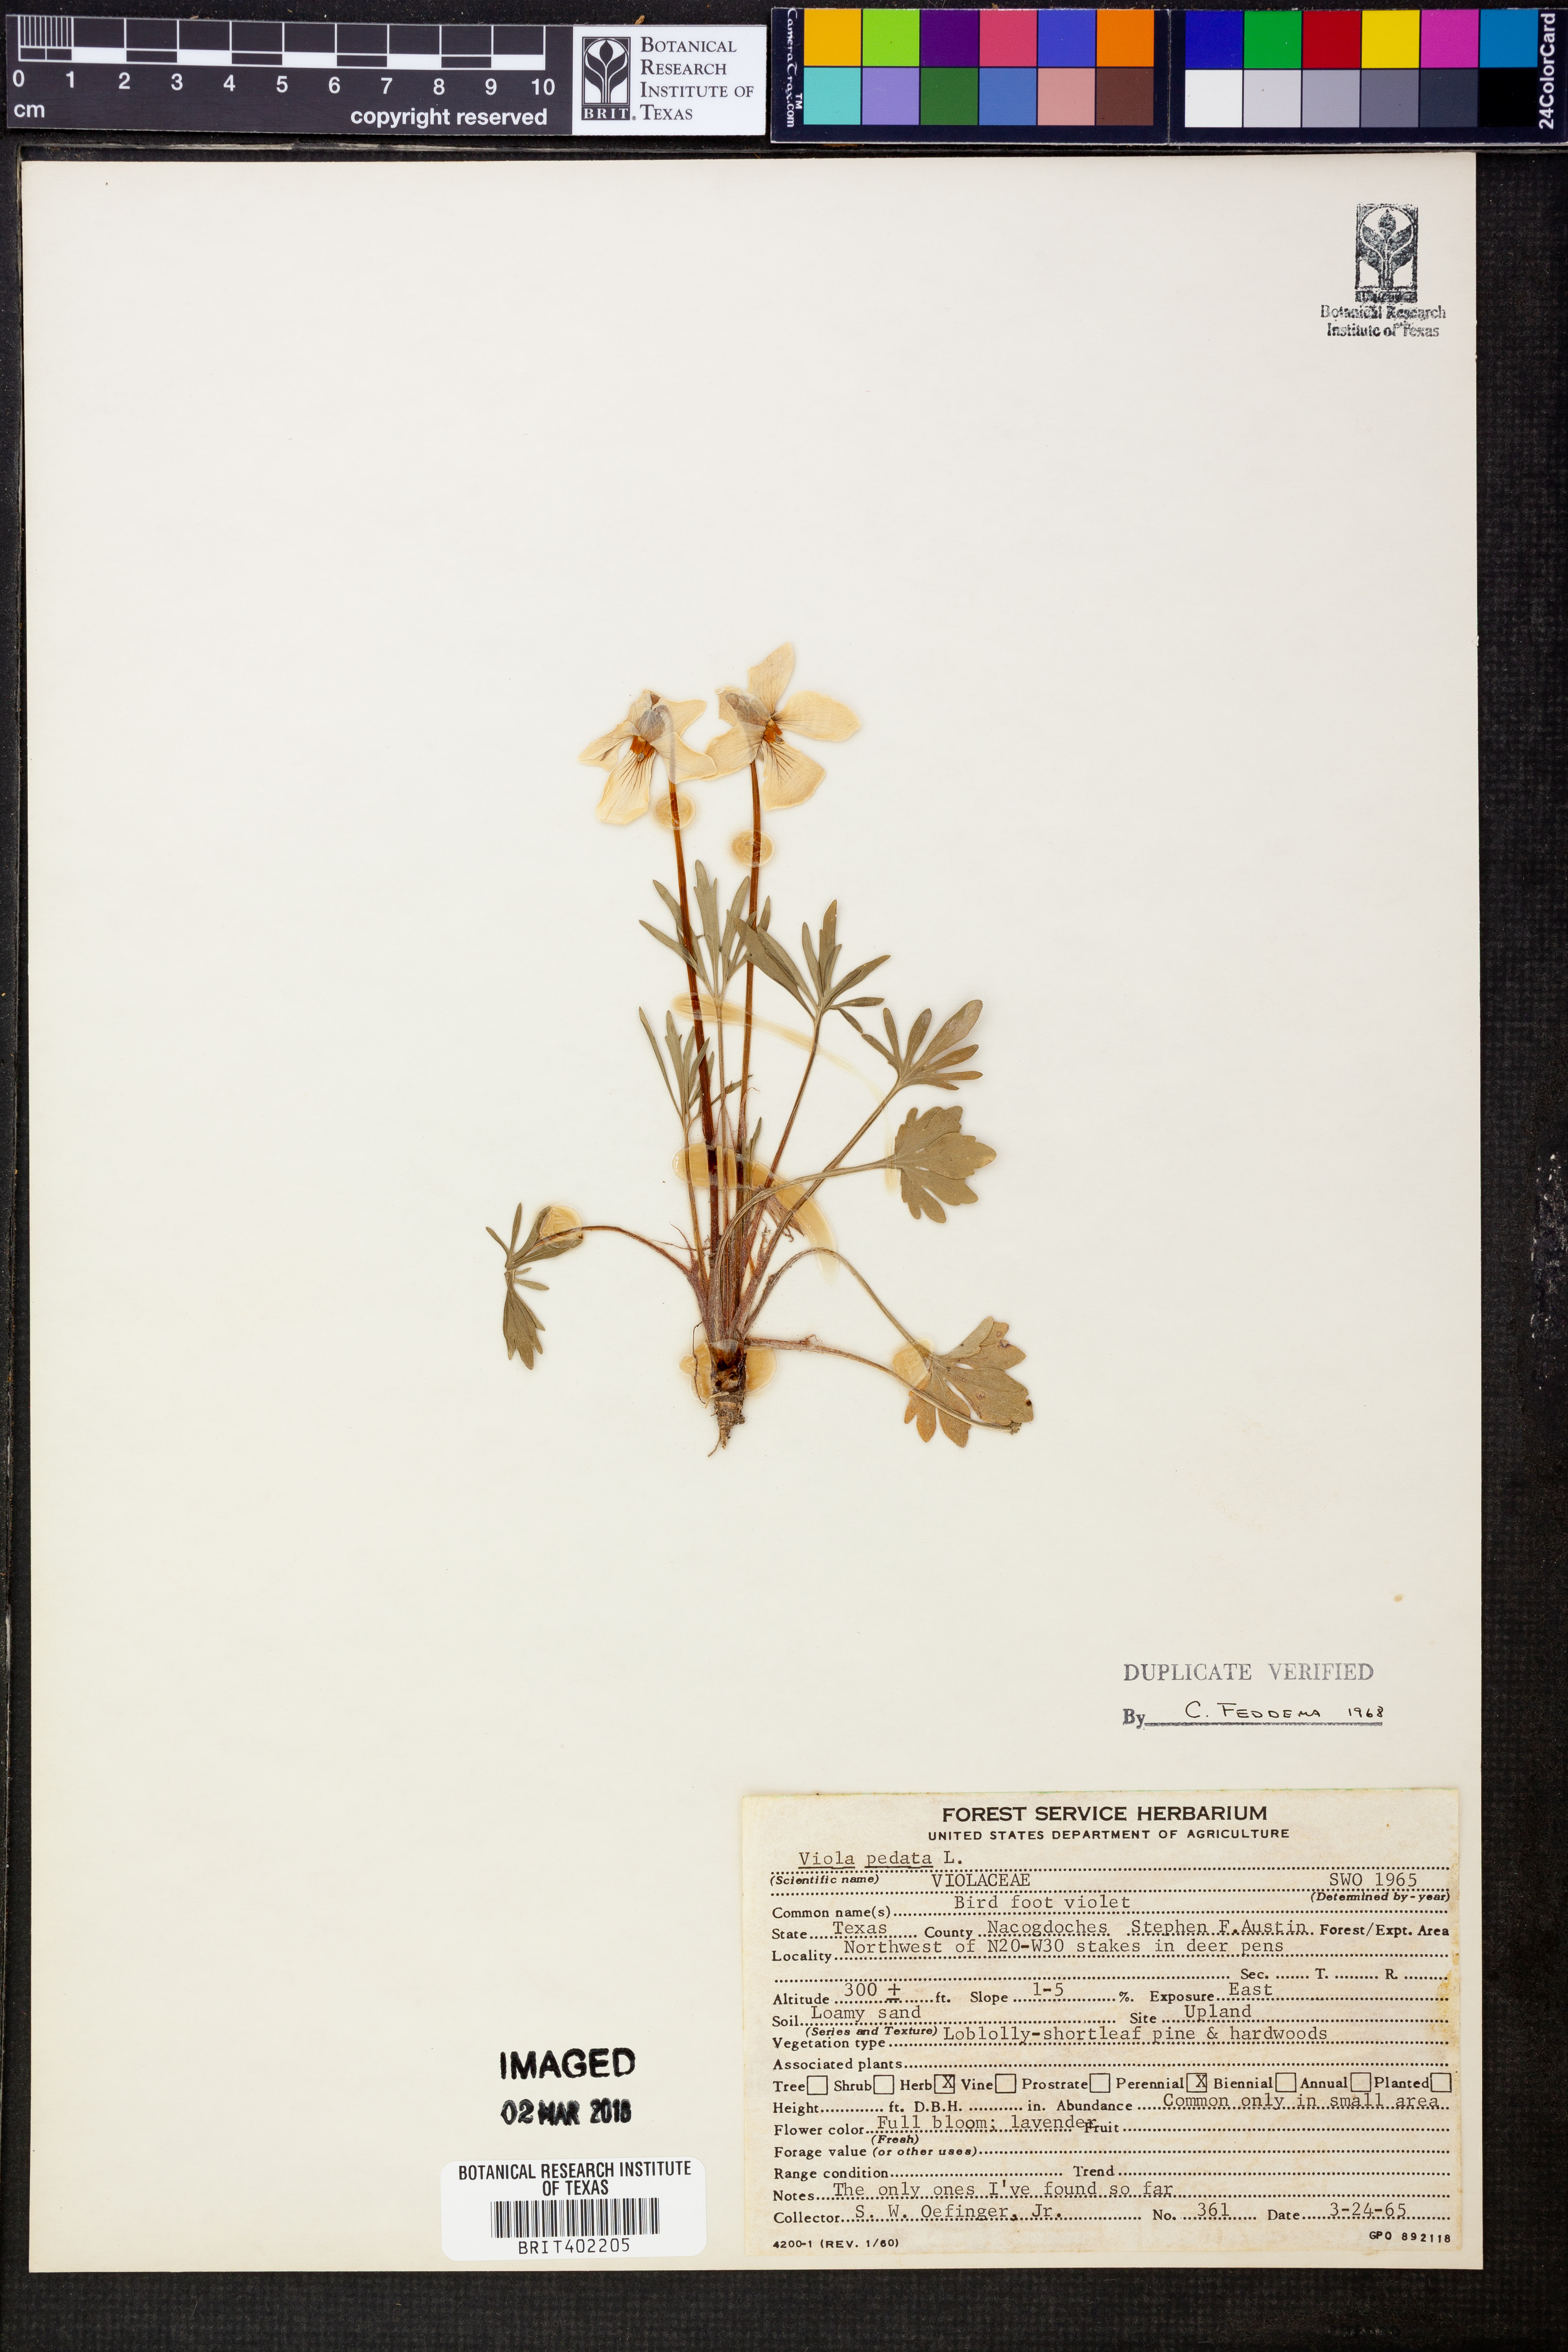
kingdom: Plantae
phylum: Tracheophyta
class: Magnoliopsida
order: Malpighiales
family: Violaceae
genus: Viola
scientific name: Viola pedata
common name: Pansy violet
